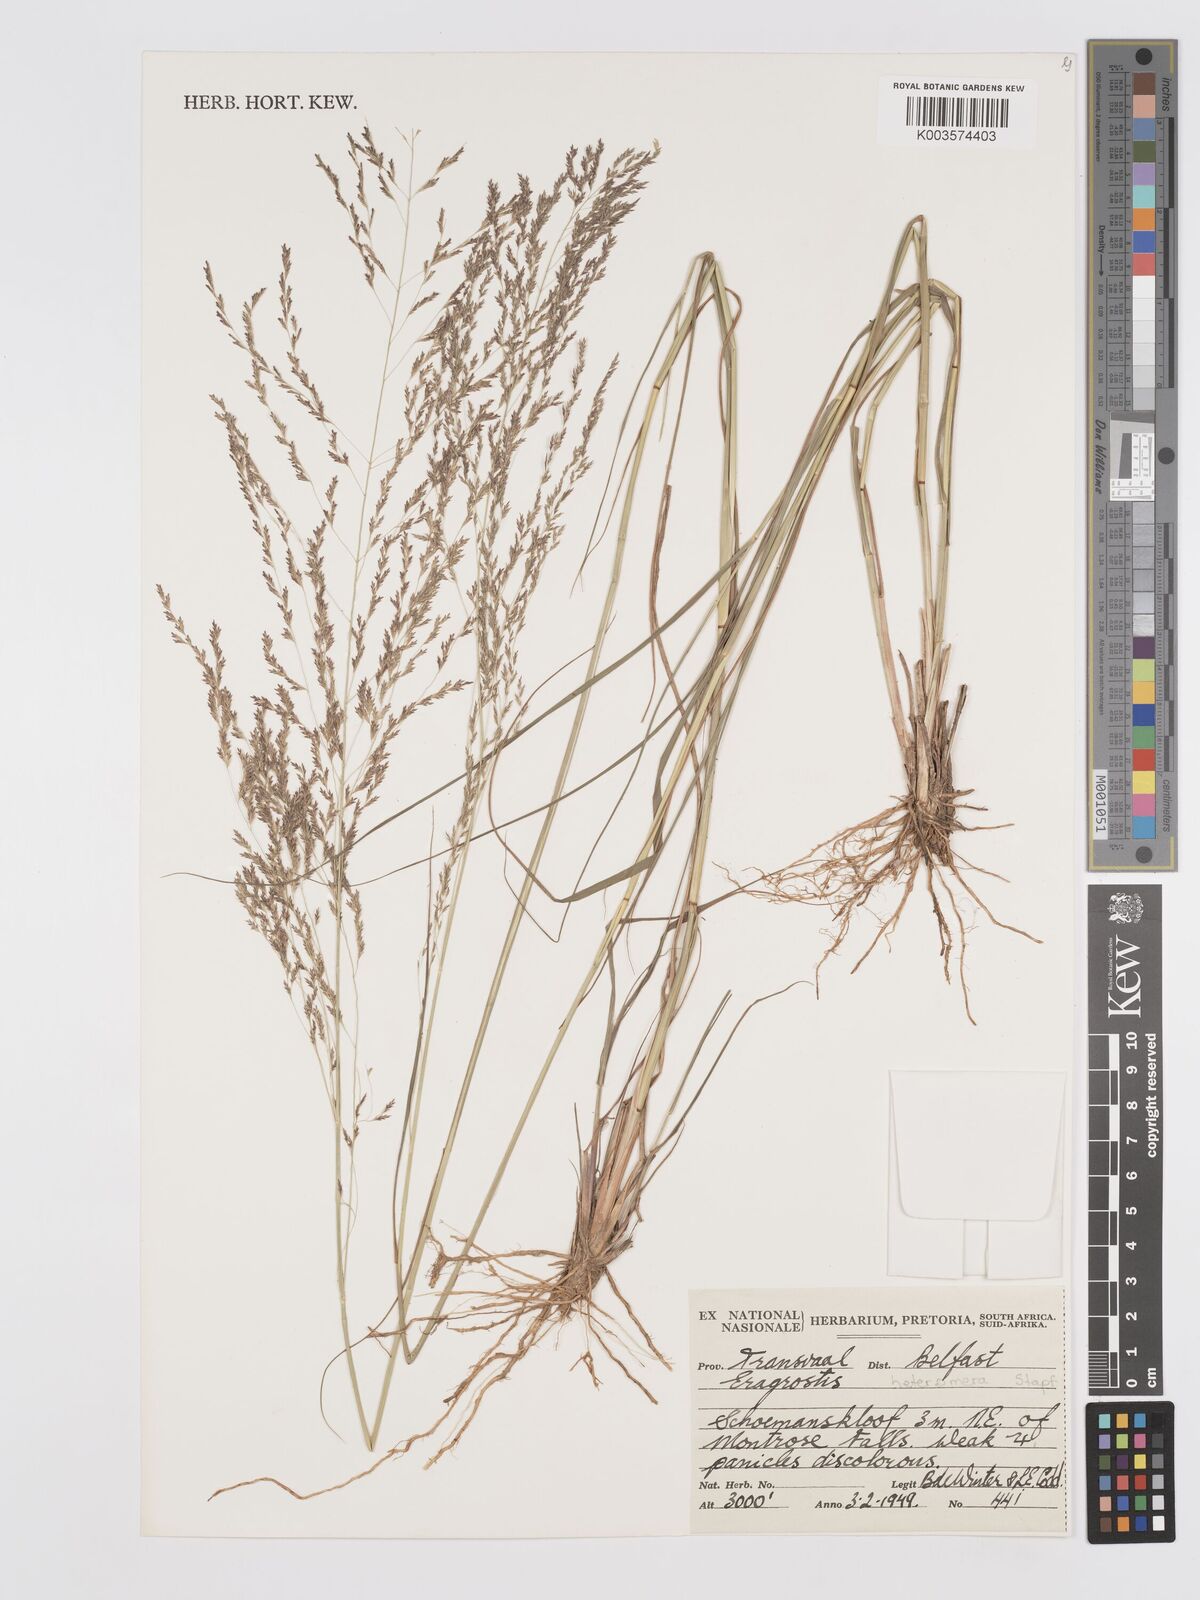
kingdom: Plantae
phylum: Tracheophyta
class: Liliopsida
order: Poales
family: Poaceae
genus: Eragrostis
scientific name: Eragrostis heteromera
